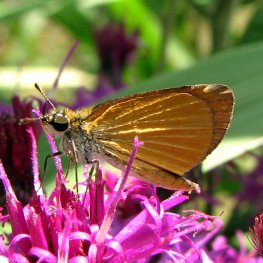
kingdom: Animalia
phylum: Arthropoda
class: Insecta
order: Lepidoptera
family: Hesperiidae
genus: Ancyloxypha
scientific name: Ancyloxypha numitor
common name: Least Skipper
